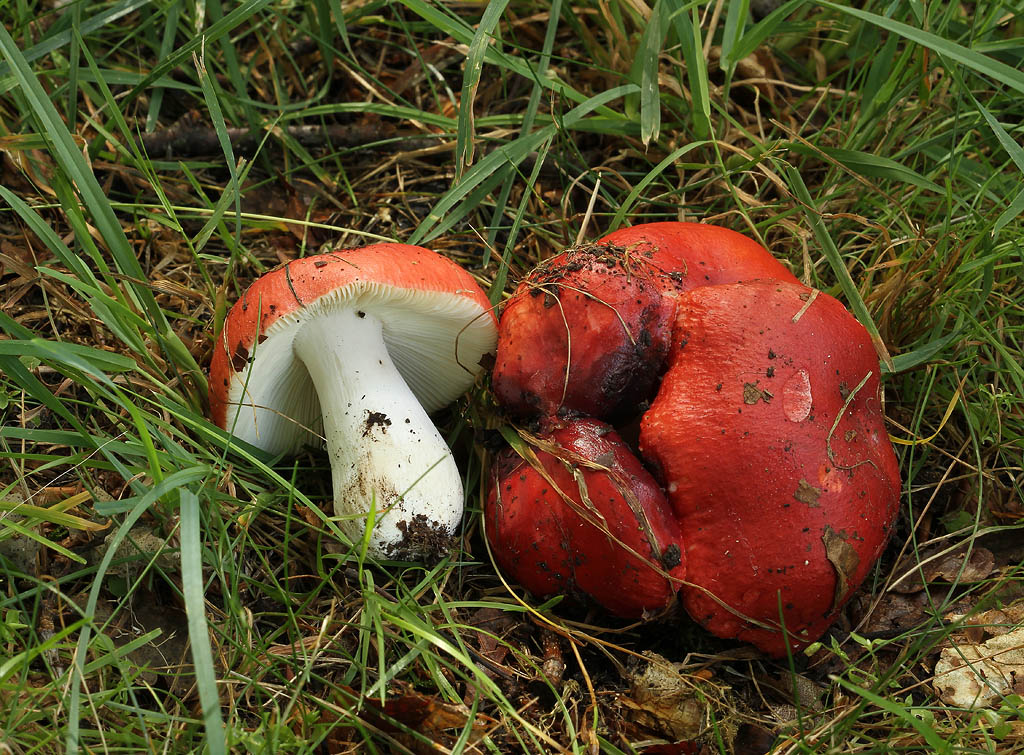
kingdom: Fungi
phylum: Basidiomycota
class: Agaricomycetes
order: Russulales
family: Russulaceae
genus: Russula
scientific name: Russula pseudointegra
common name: cinnoberrød skørhat
